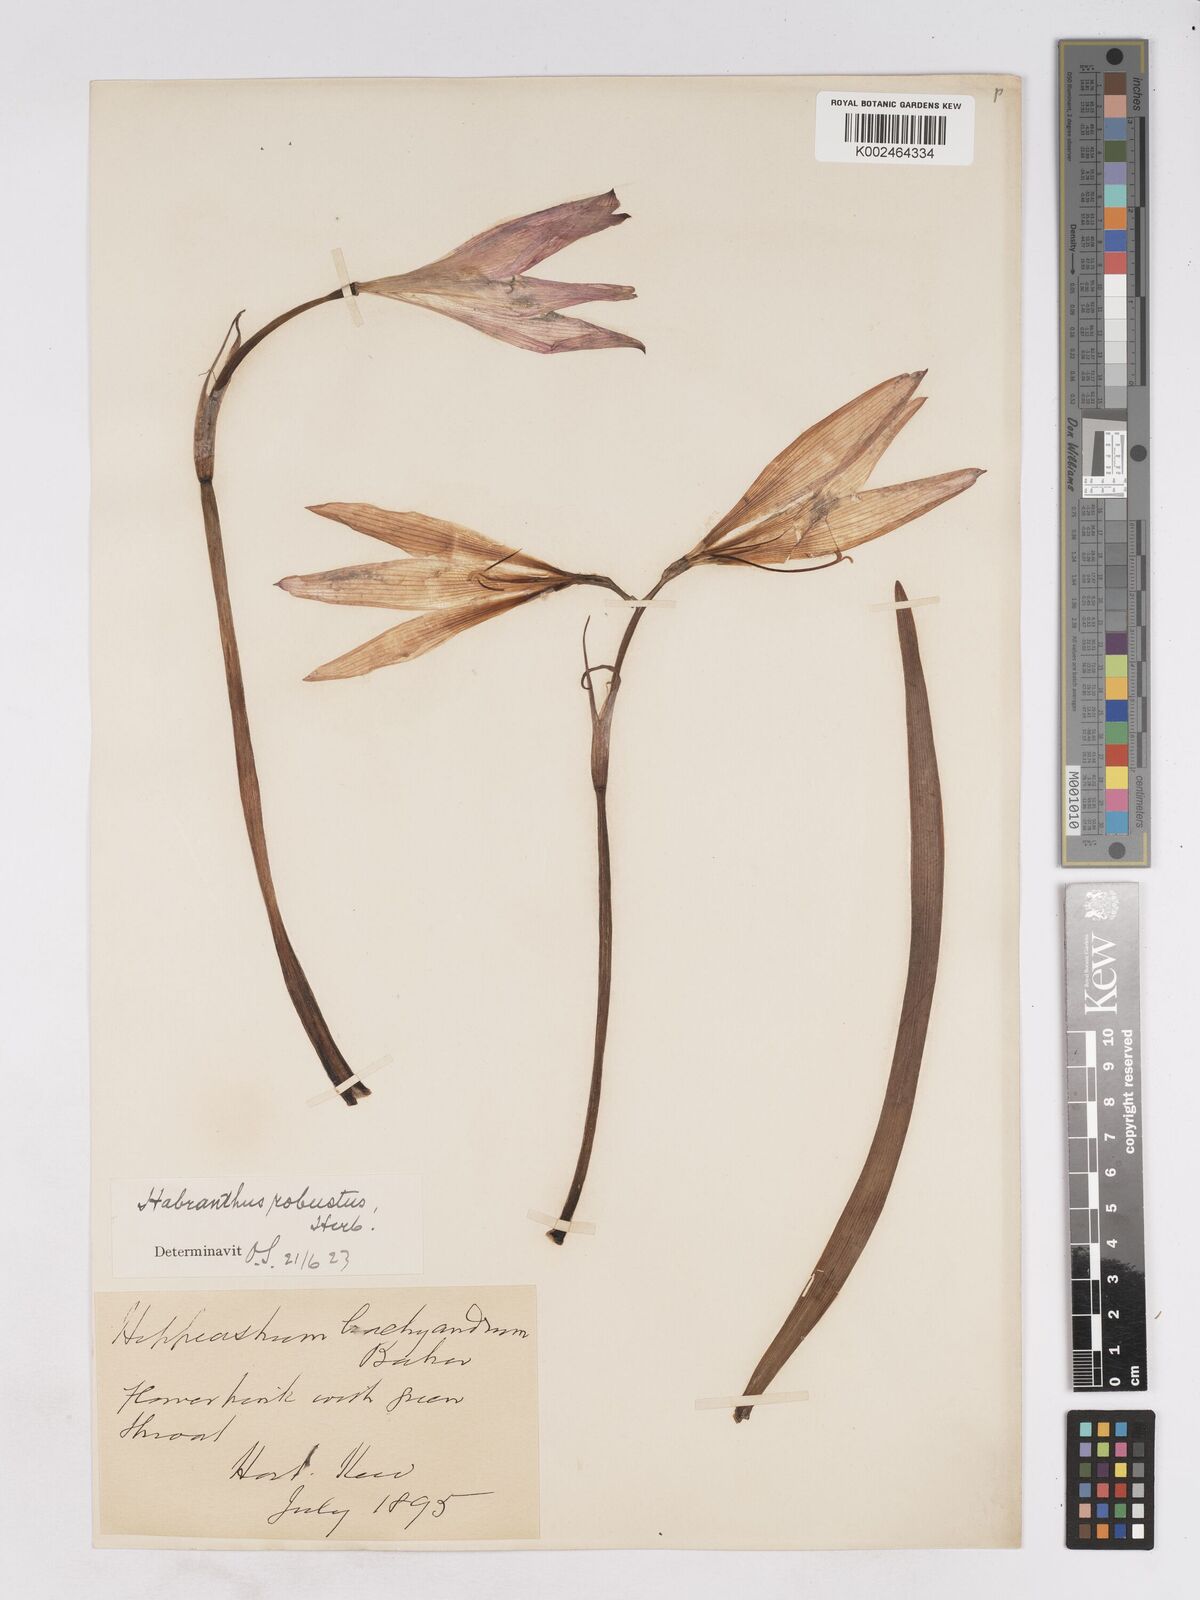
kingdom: Plantae
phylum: Tracheophyta
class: Liliopsida
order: Asparagales
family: Amaryllidaceae
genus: Zephyranthes
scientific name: Zephyranthes robusta
